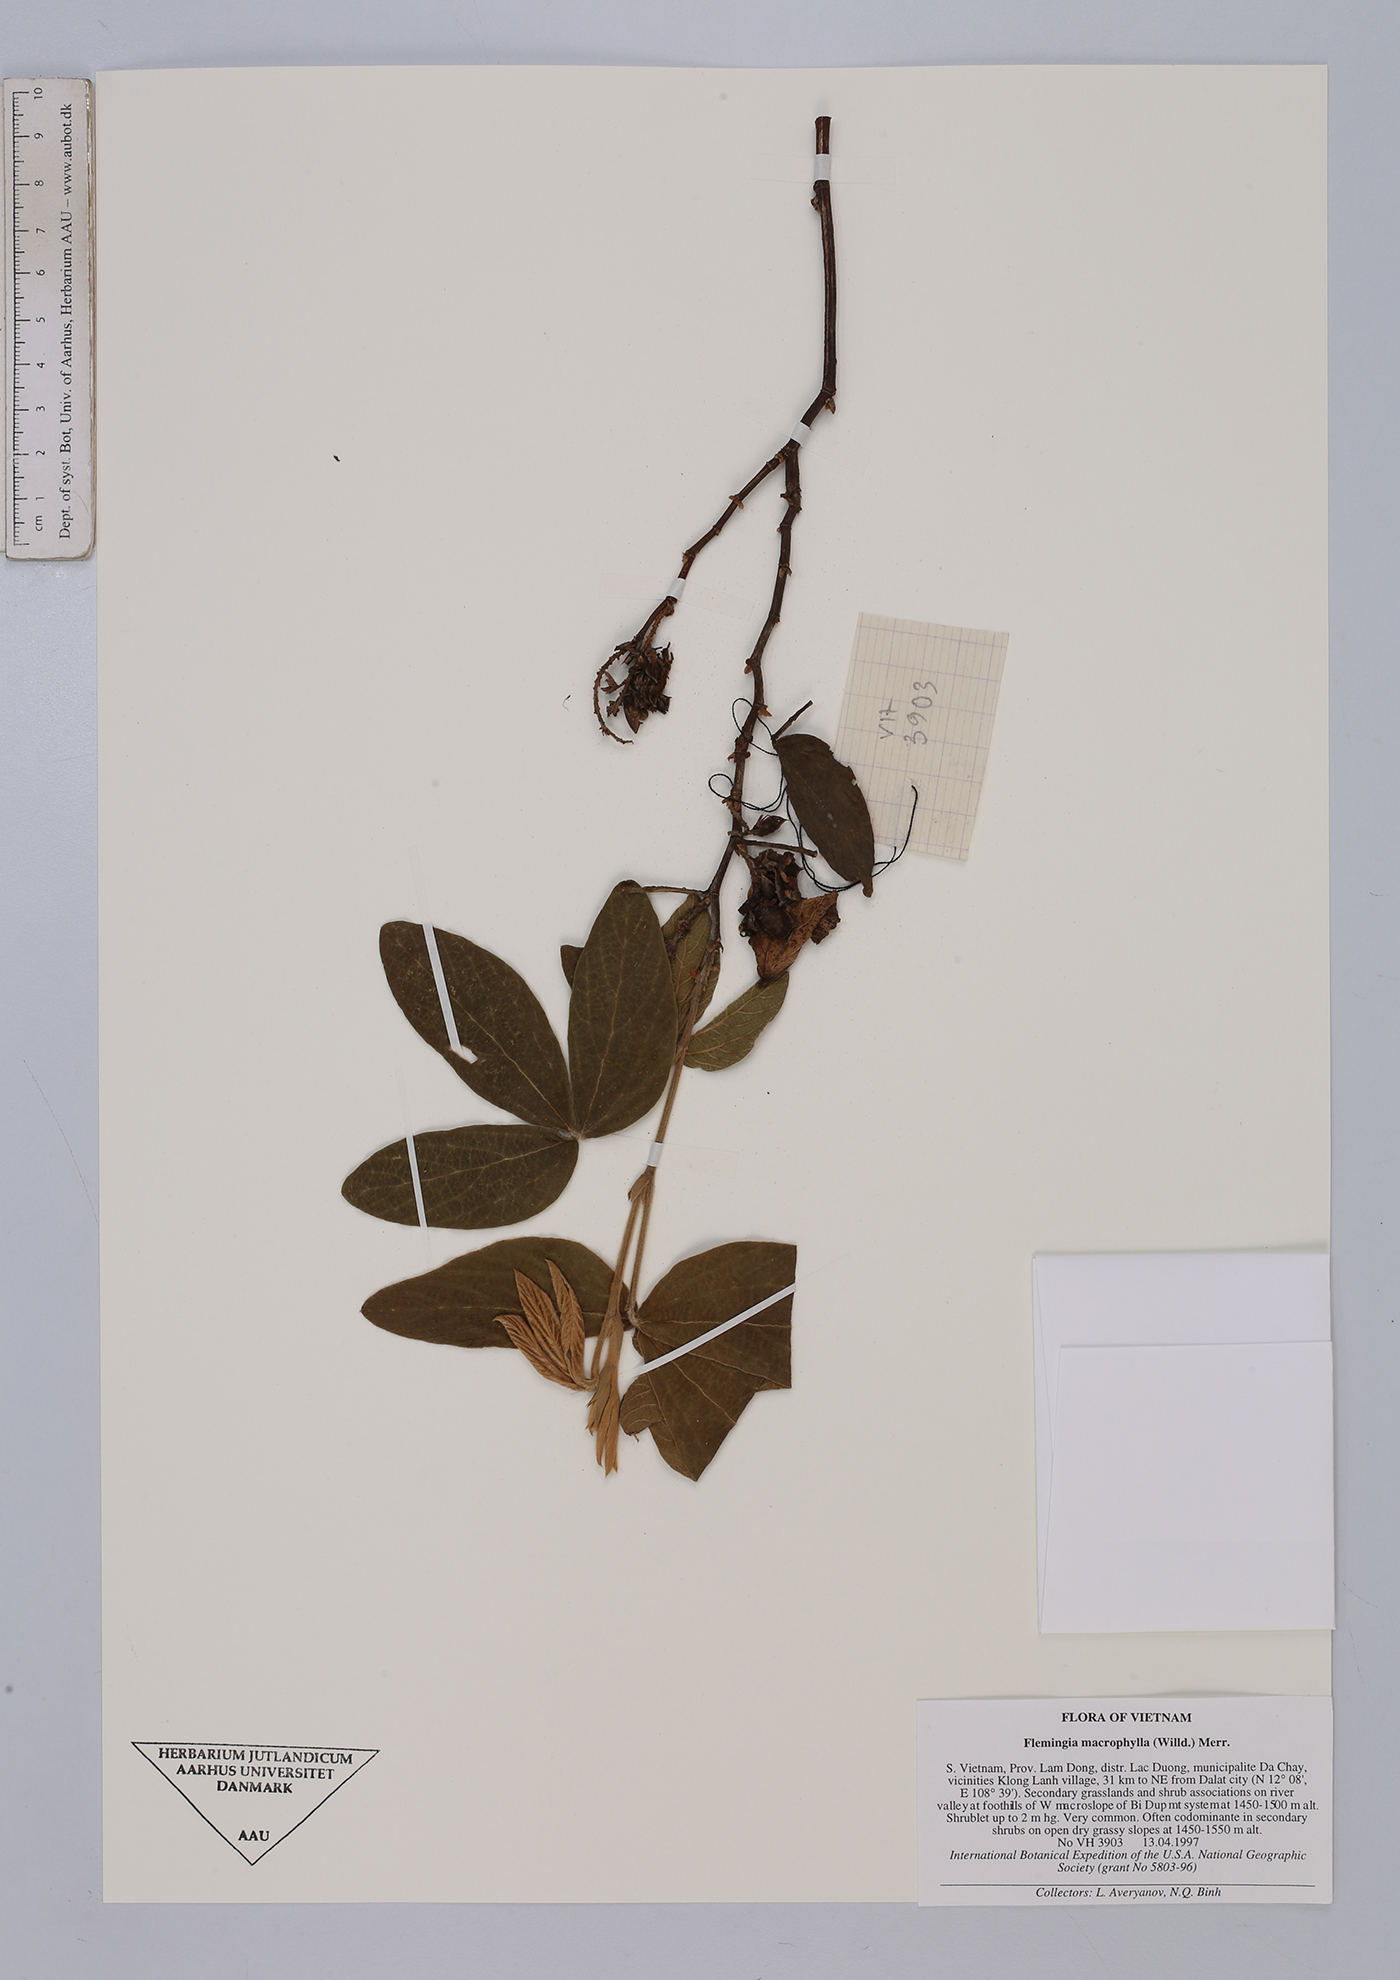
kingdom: Plantae
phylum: Tracheophyta
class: Magnoliopsida
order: Fabales
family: Fabaceae
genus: Flemingia
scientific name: Flemingia macrophylla
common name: Flemingia
